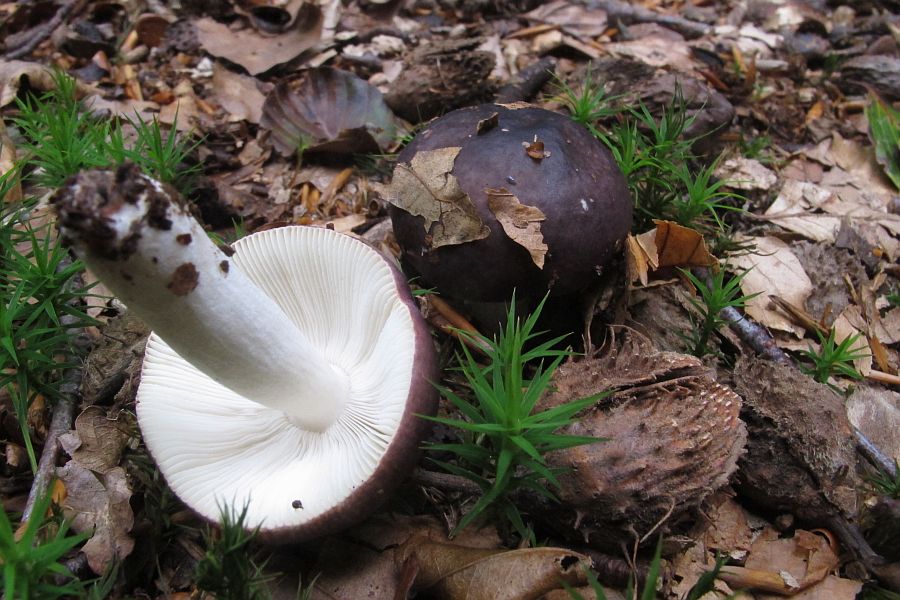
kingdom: Fungi
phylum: Basidiomycota
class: Agaricomycetes
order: Russulales
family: Russulaceae
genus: Russula
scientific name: Russula brunneoviolacea
